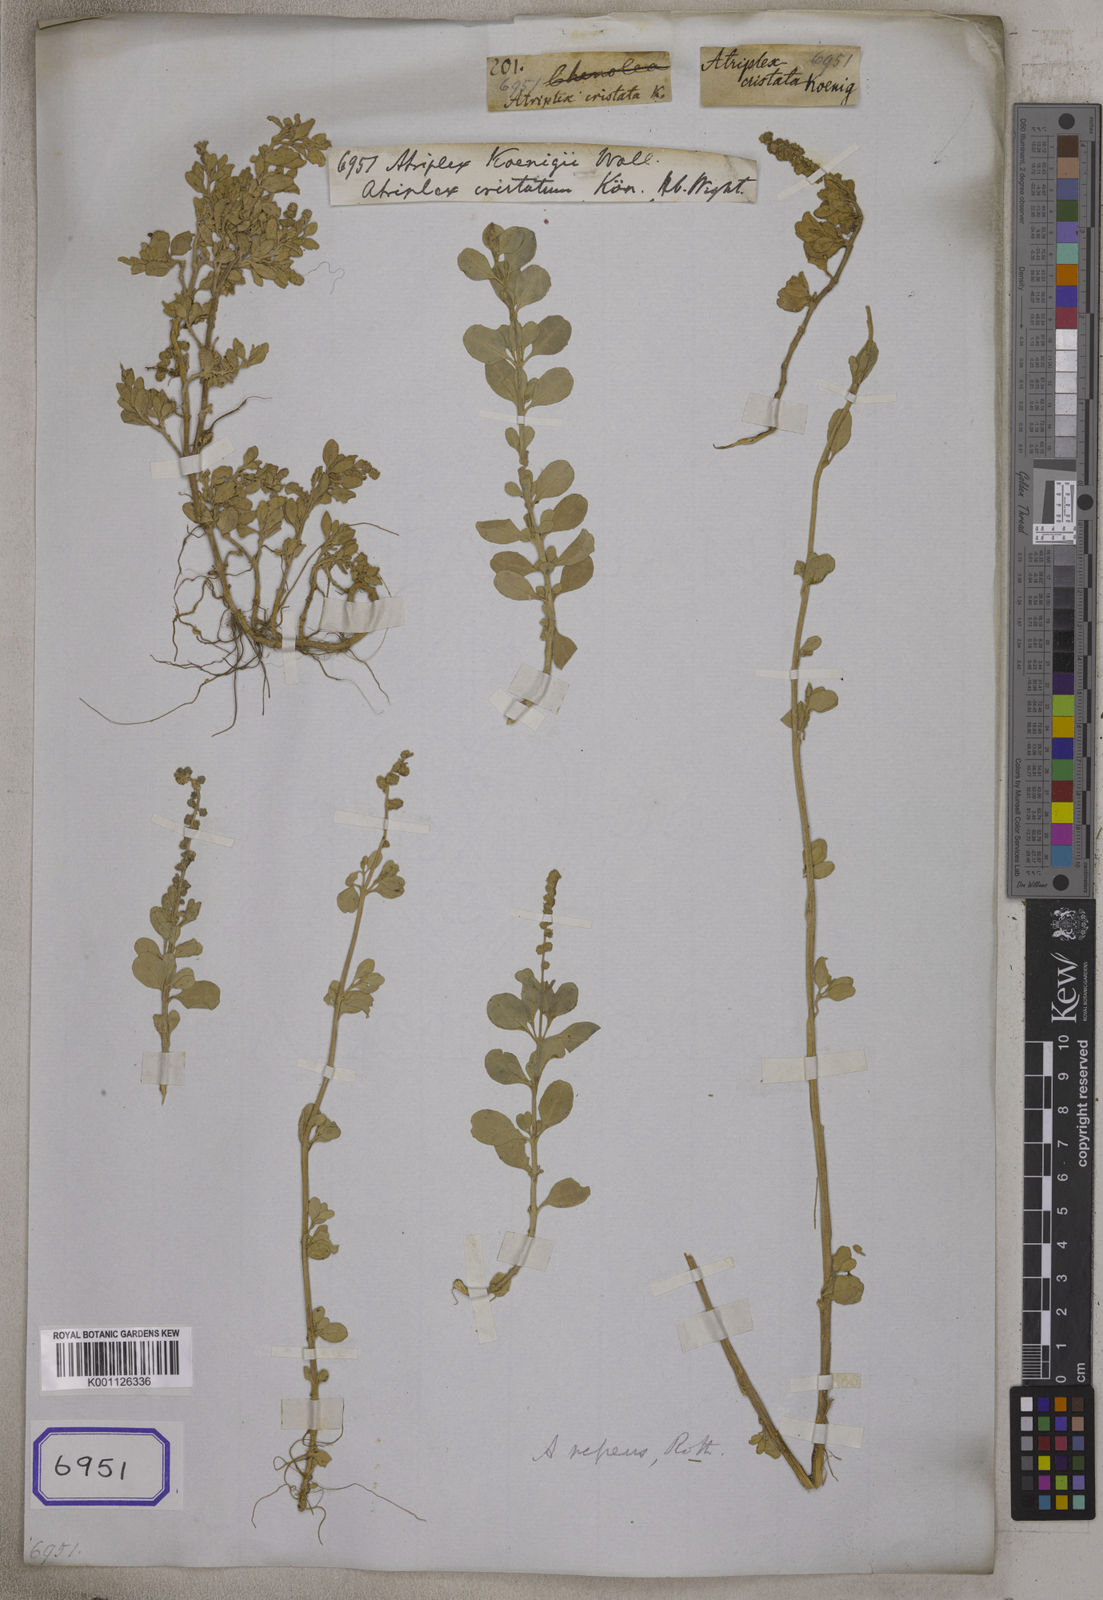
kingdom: Plantae
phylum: Tracheophyta
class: Magnoliopsida
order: Caryophyllales
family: Amaranthaceae
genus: Atriplex
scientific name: Atriplex repens
